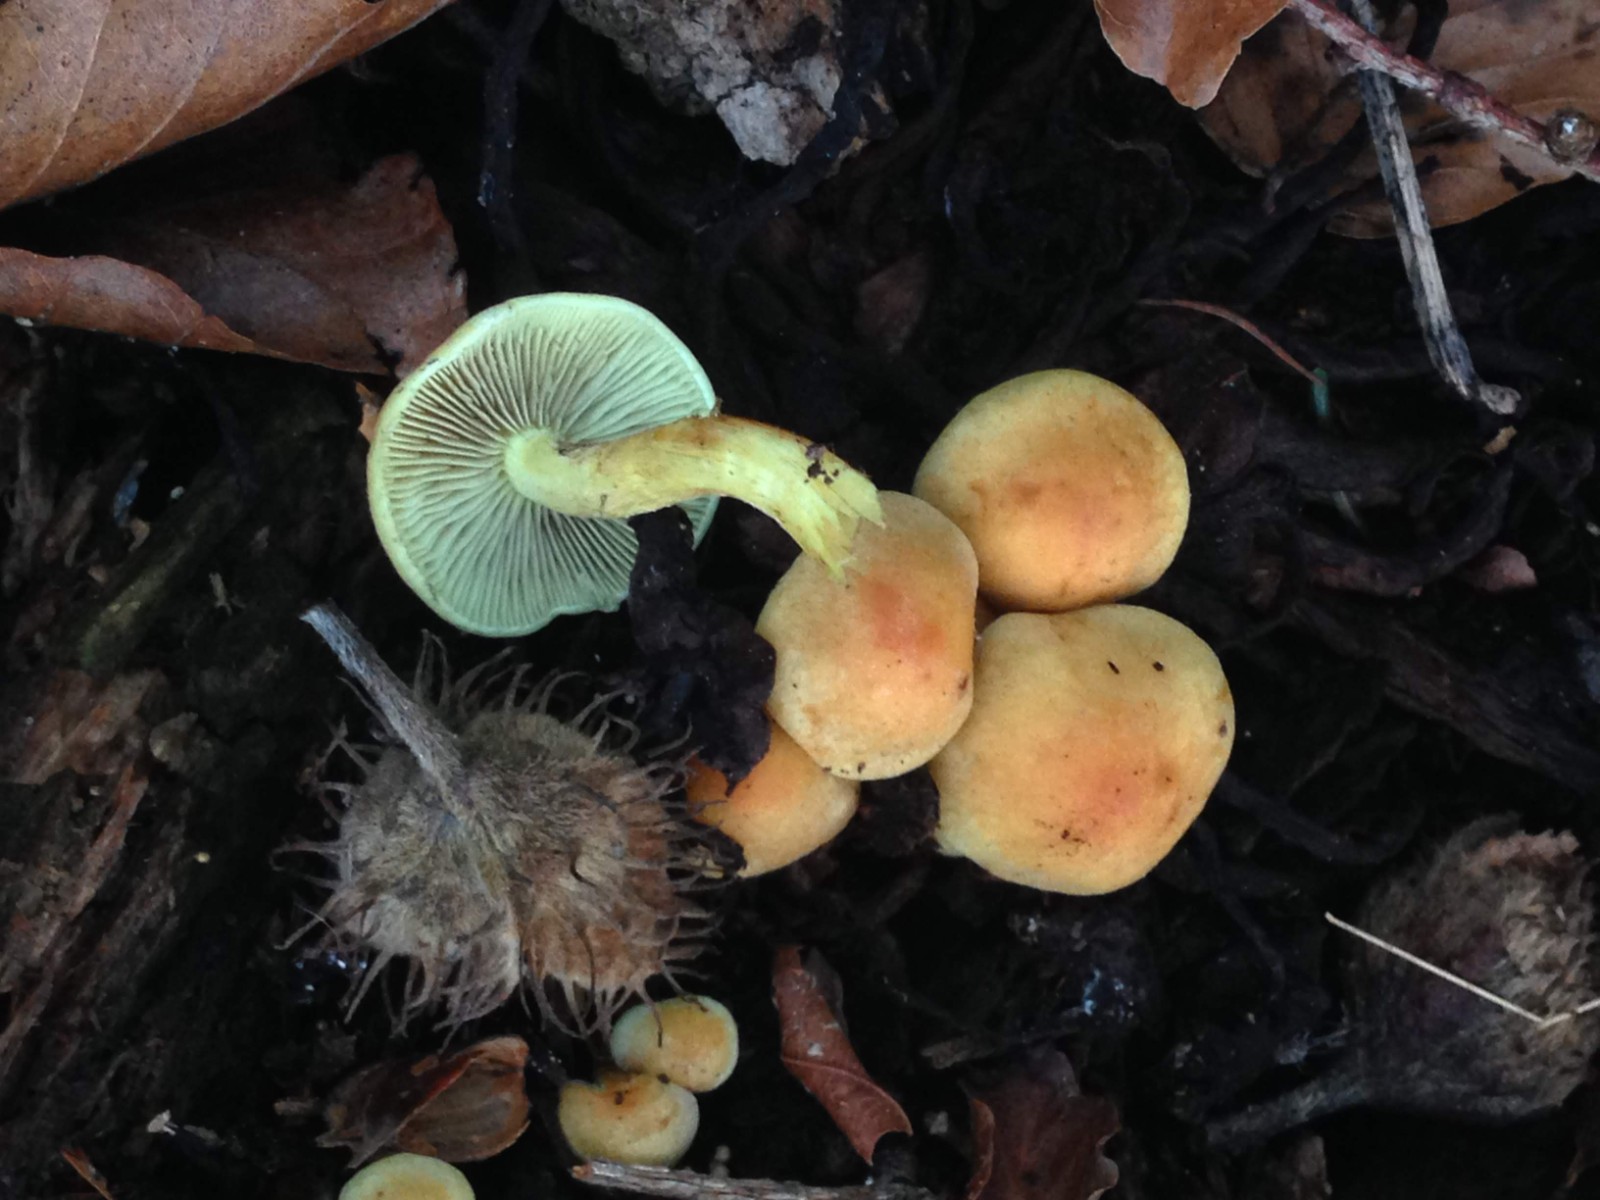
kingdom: Fungi
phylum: Basidiomycota
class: Agaricomycetes
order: Agaricales
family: Strophariaceae
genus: Hypholoma
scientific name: Hypholoma fasciculare
